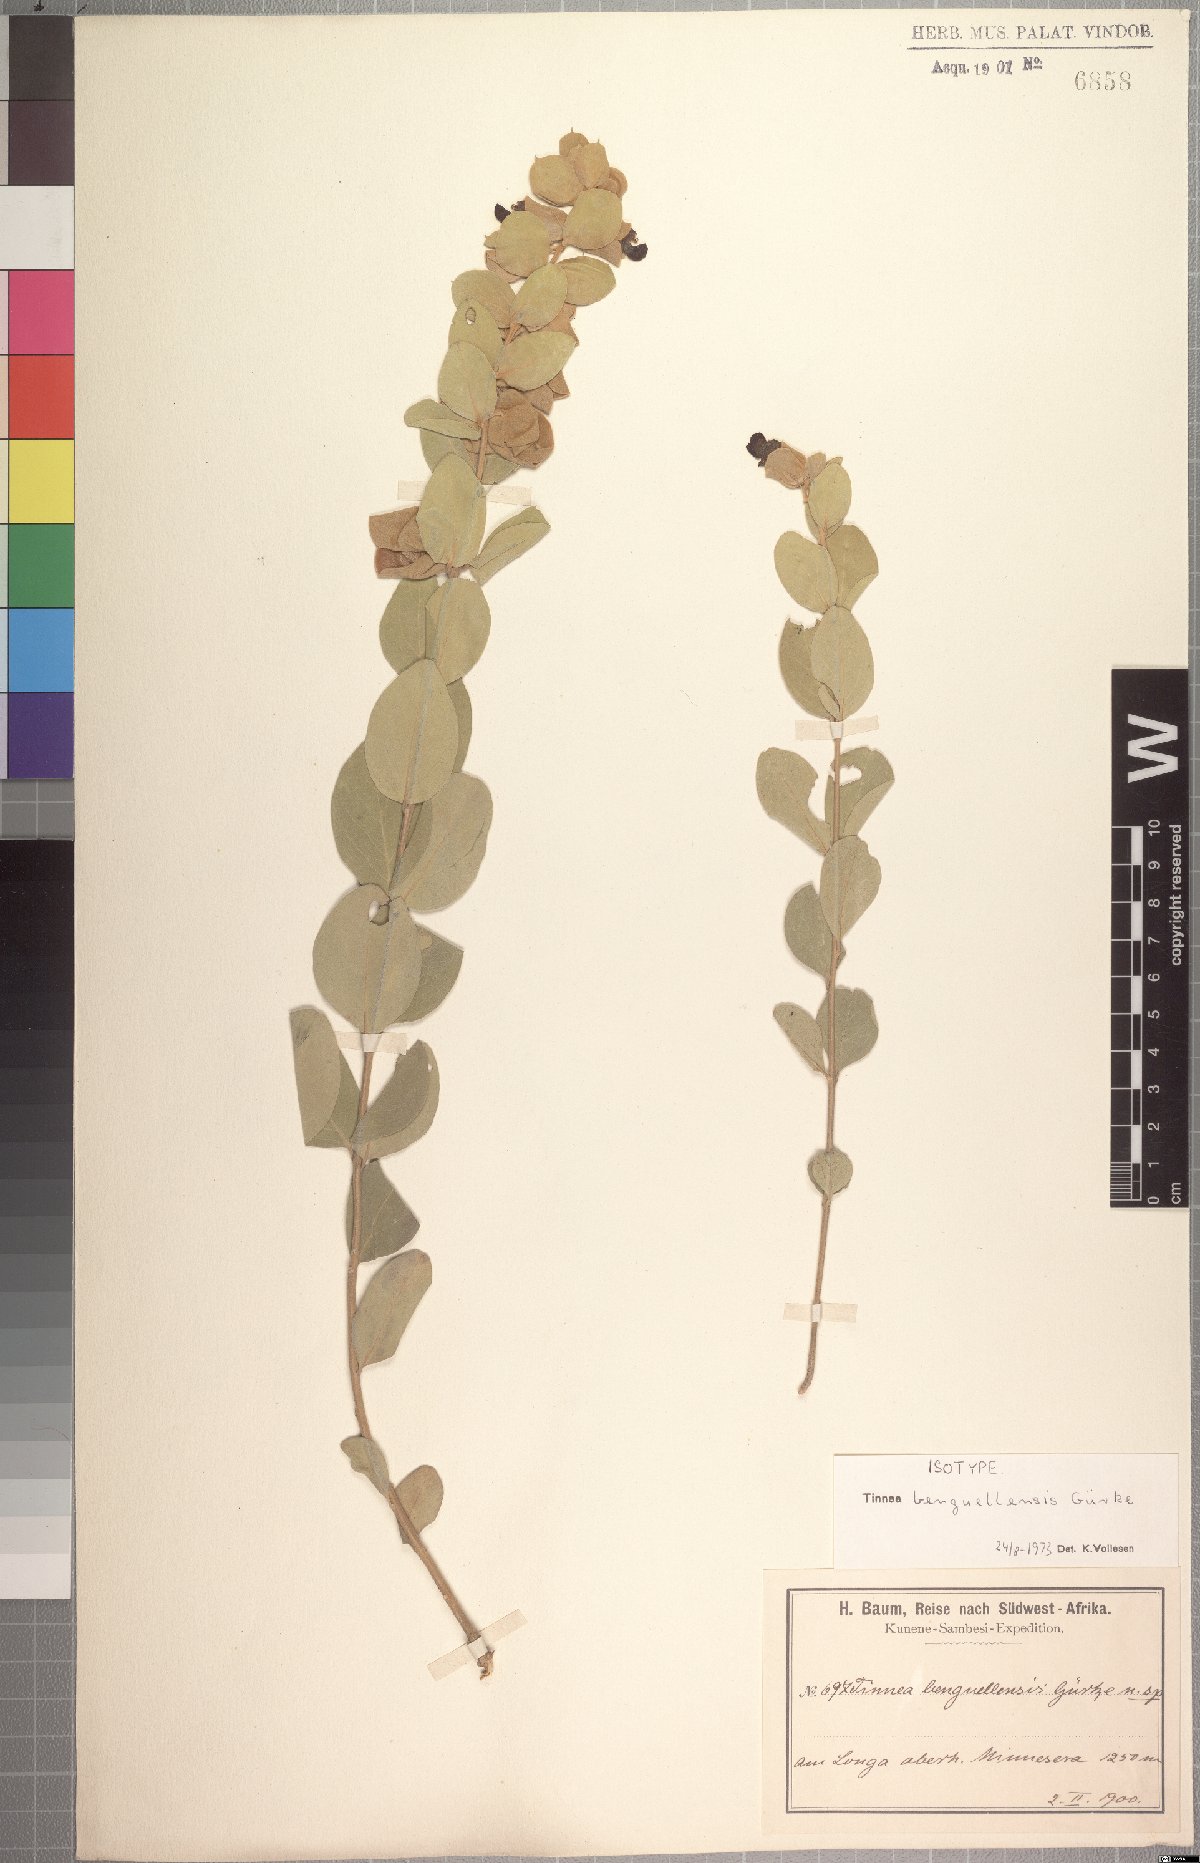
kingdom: Plantae
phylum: Tracheophyta
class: Magnoliopsida
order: Lamiales
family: Lamiaceae
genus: Tinnea
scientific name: Tinnea benguellensis
